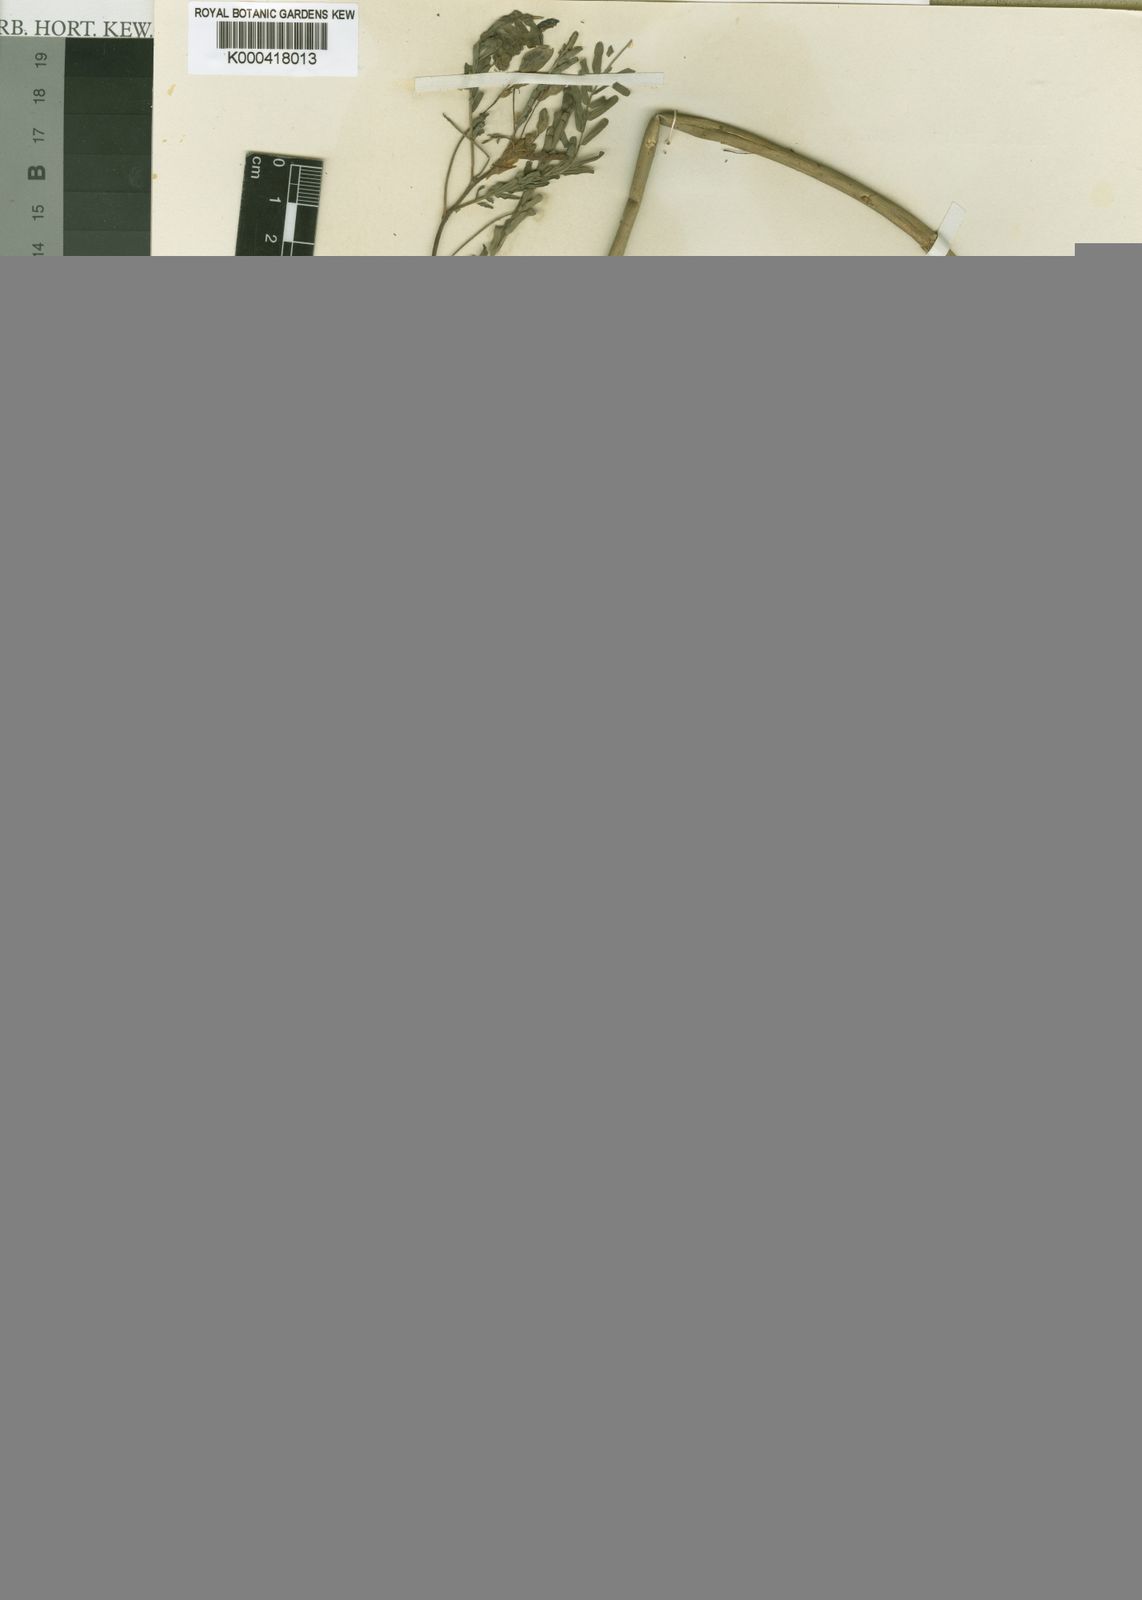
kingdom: Plantae
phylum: Tracheophyta
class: Magnoliopsida
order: Fabales
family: Fabaceae
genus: Aeschynomene
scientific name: Aeschynomene nilotica
